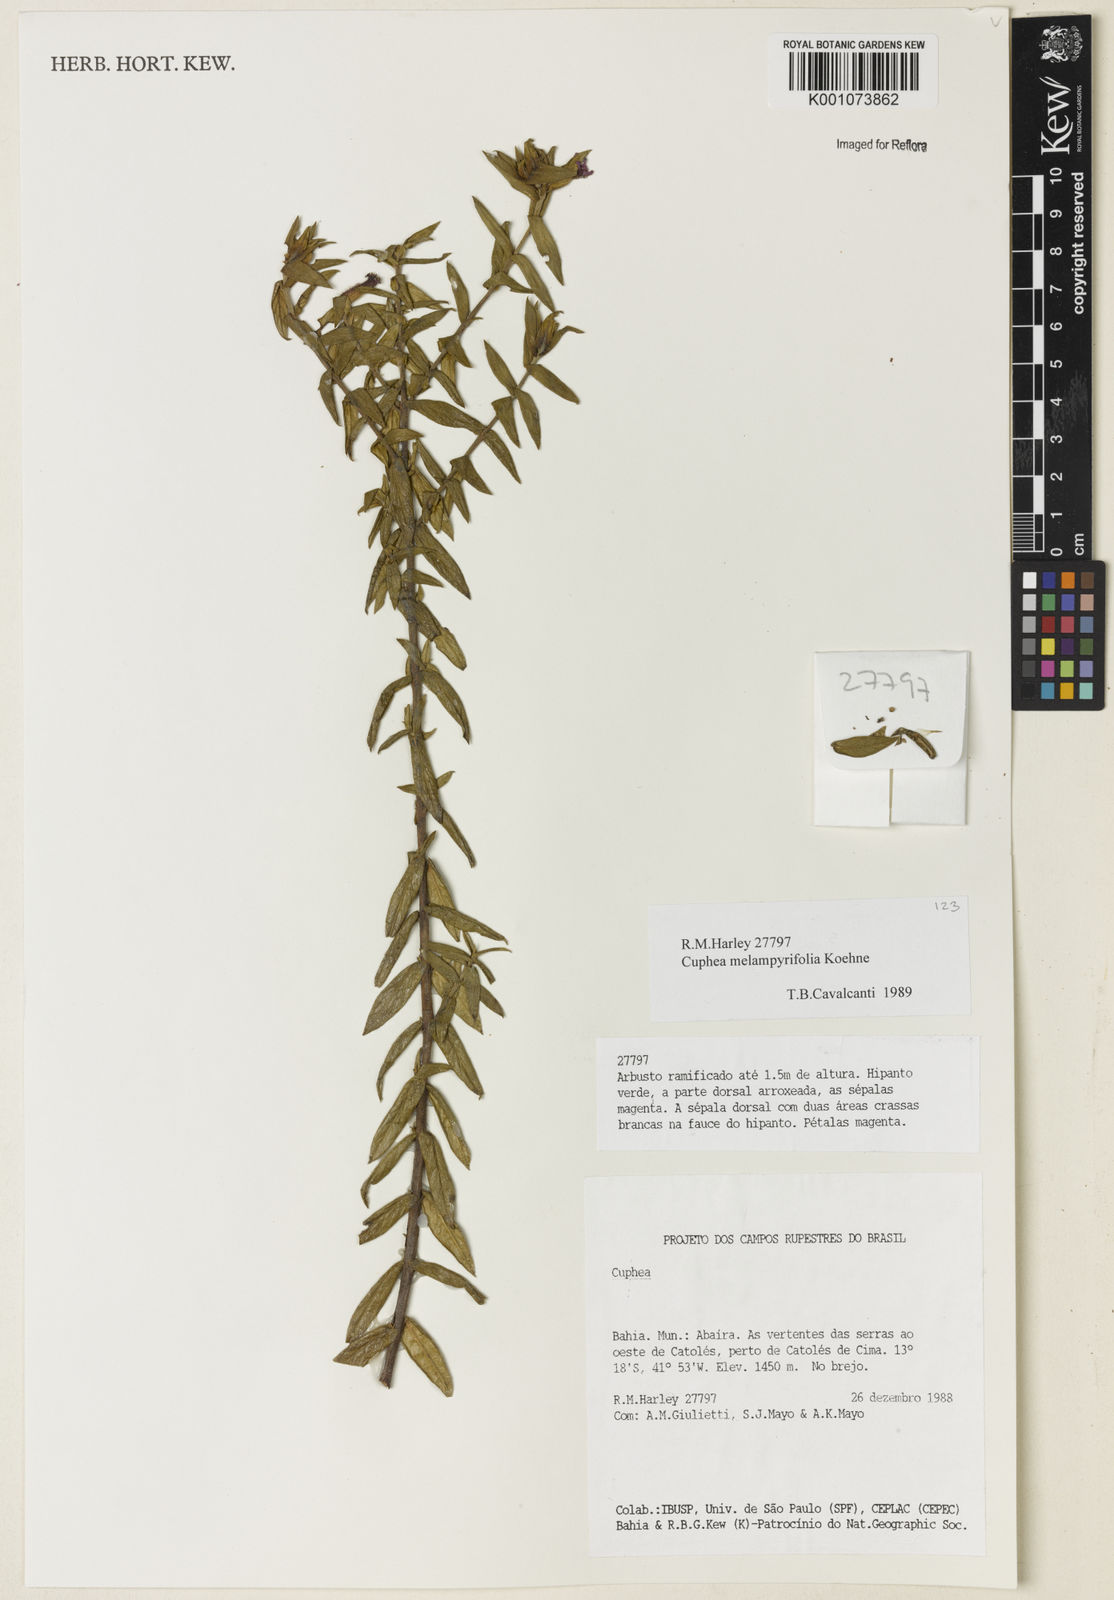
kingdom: Plantae
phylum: Tracheophyta
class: Magnoliopsida
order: Myrtales
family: Lythraceae
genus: Cuphea
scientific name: Cuphea sessiliflora
